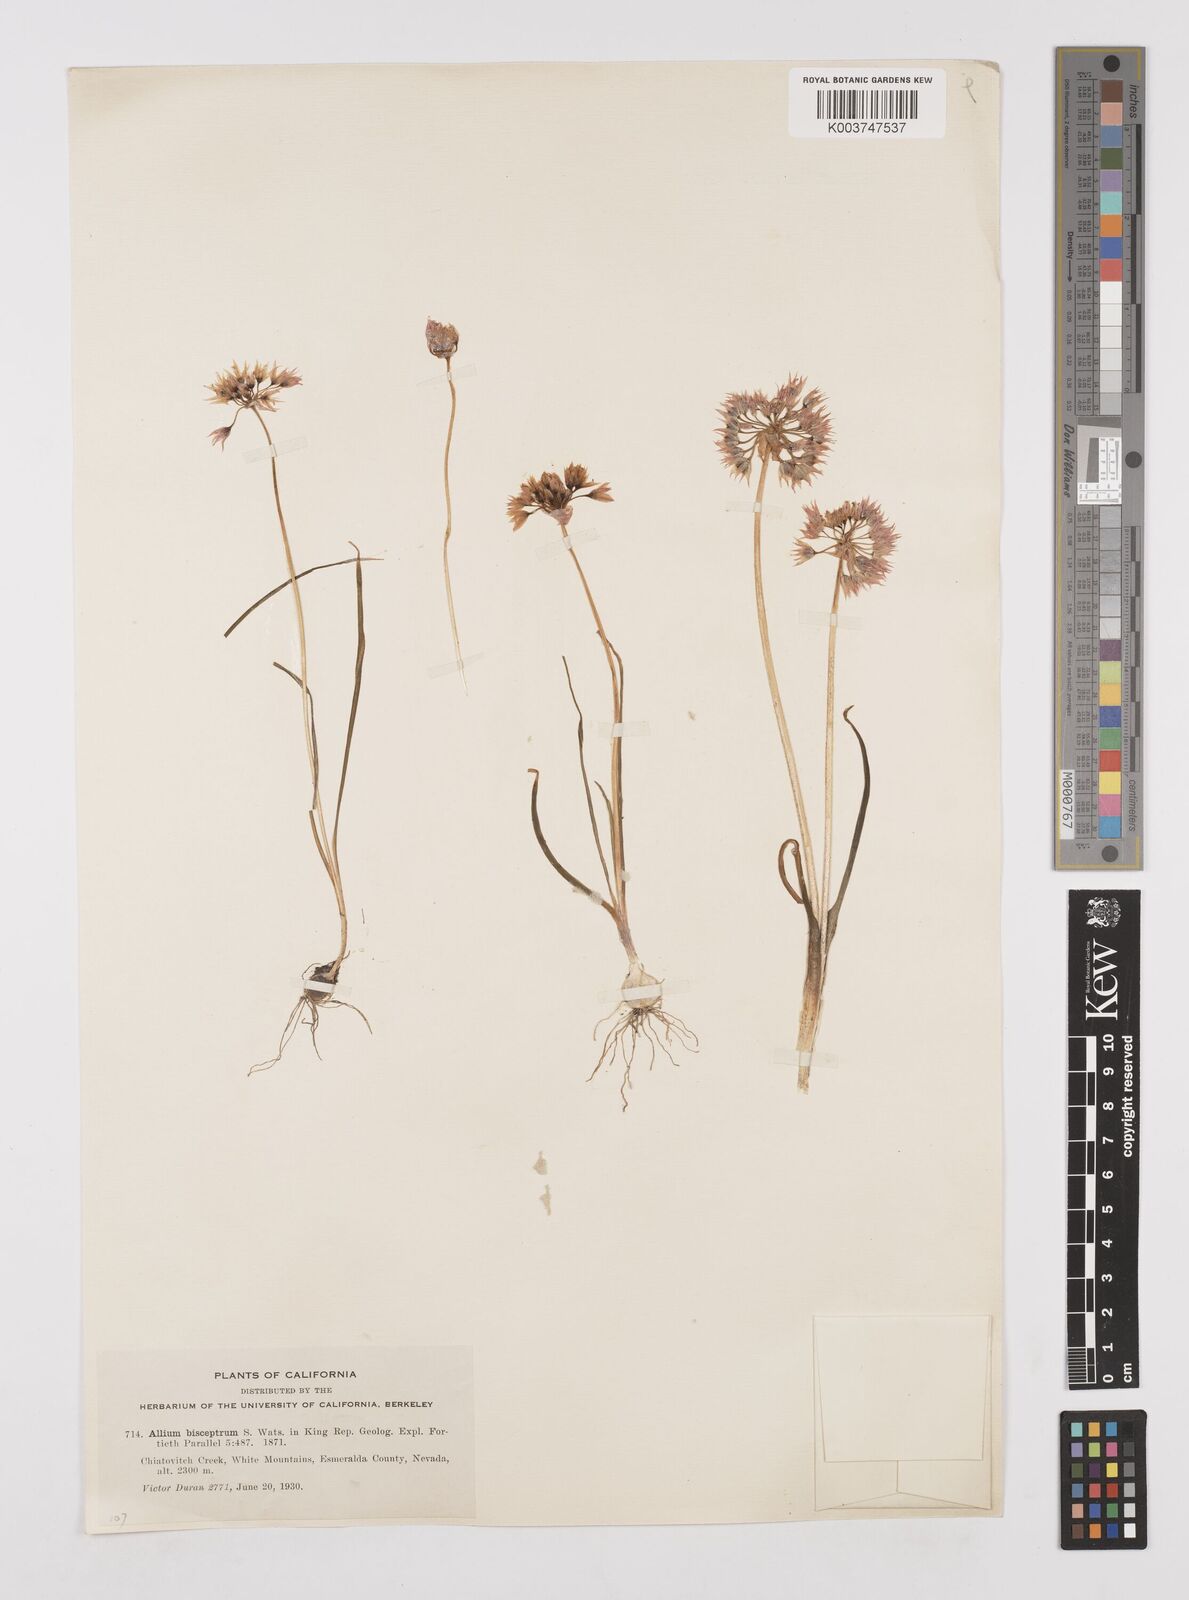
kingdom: Plantae
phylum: Tracheophyta
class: Liliopsida
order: Asparagales
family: Amaryllidaceae
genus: Allium
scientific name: Allium bisceptrum
